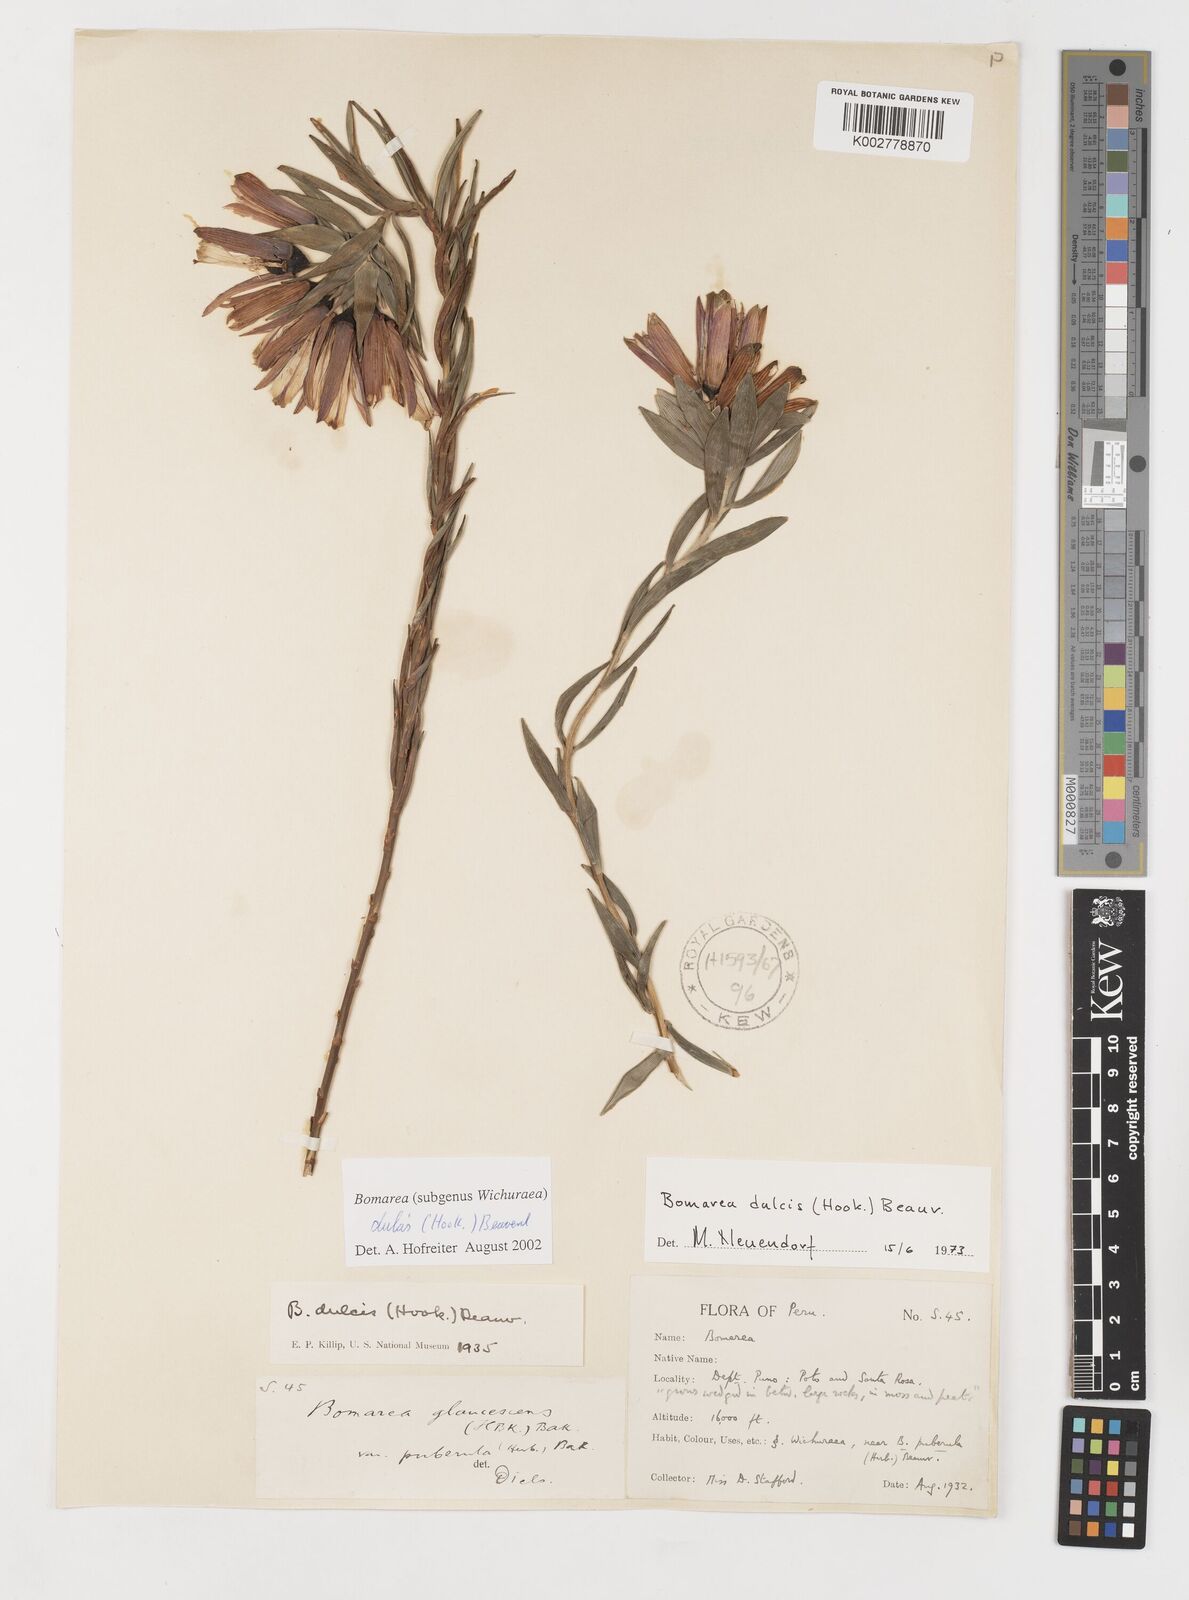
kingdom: Plantae
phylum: Tracheophyta
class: Liliopsida
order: Liliales
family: Alstroemeriaceae
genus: Bomarea
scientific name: Bomarea dulcis
